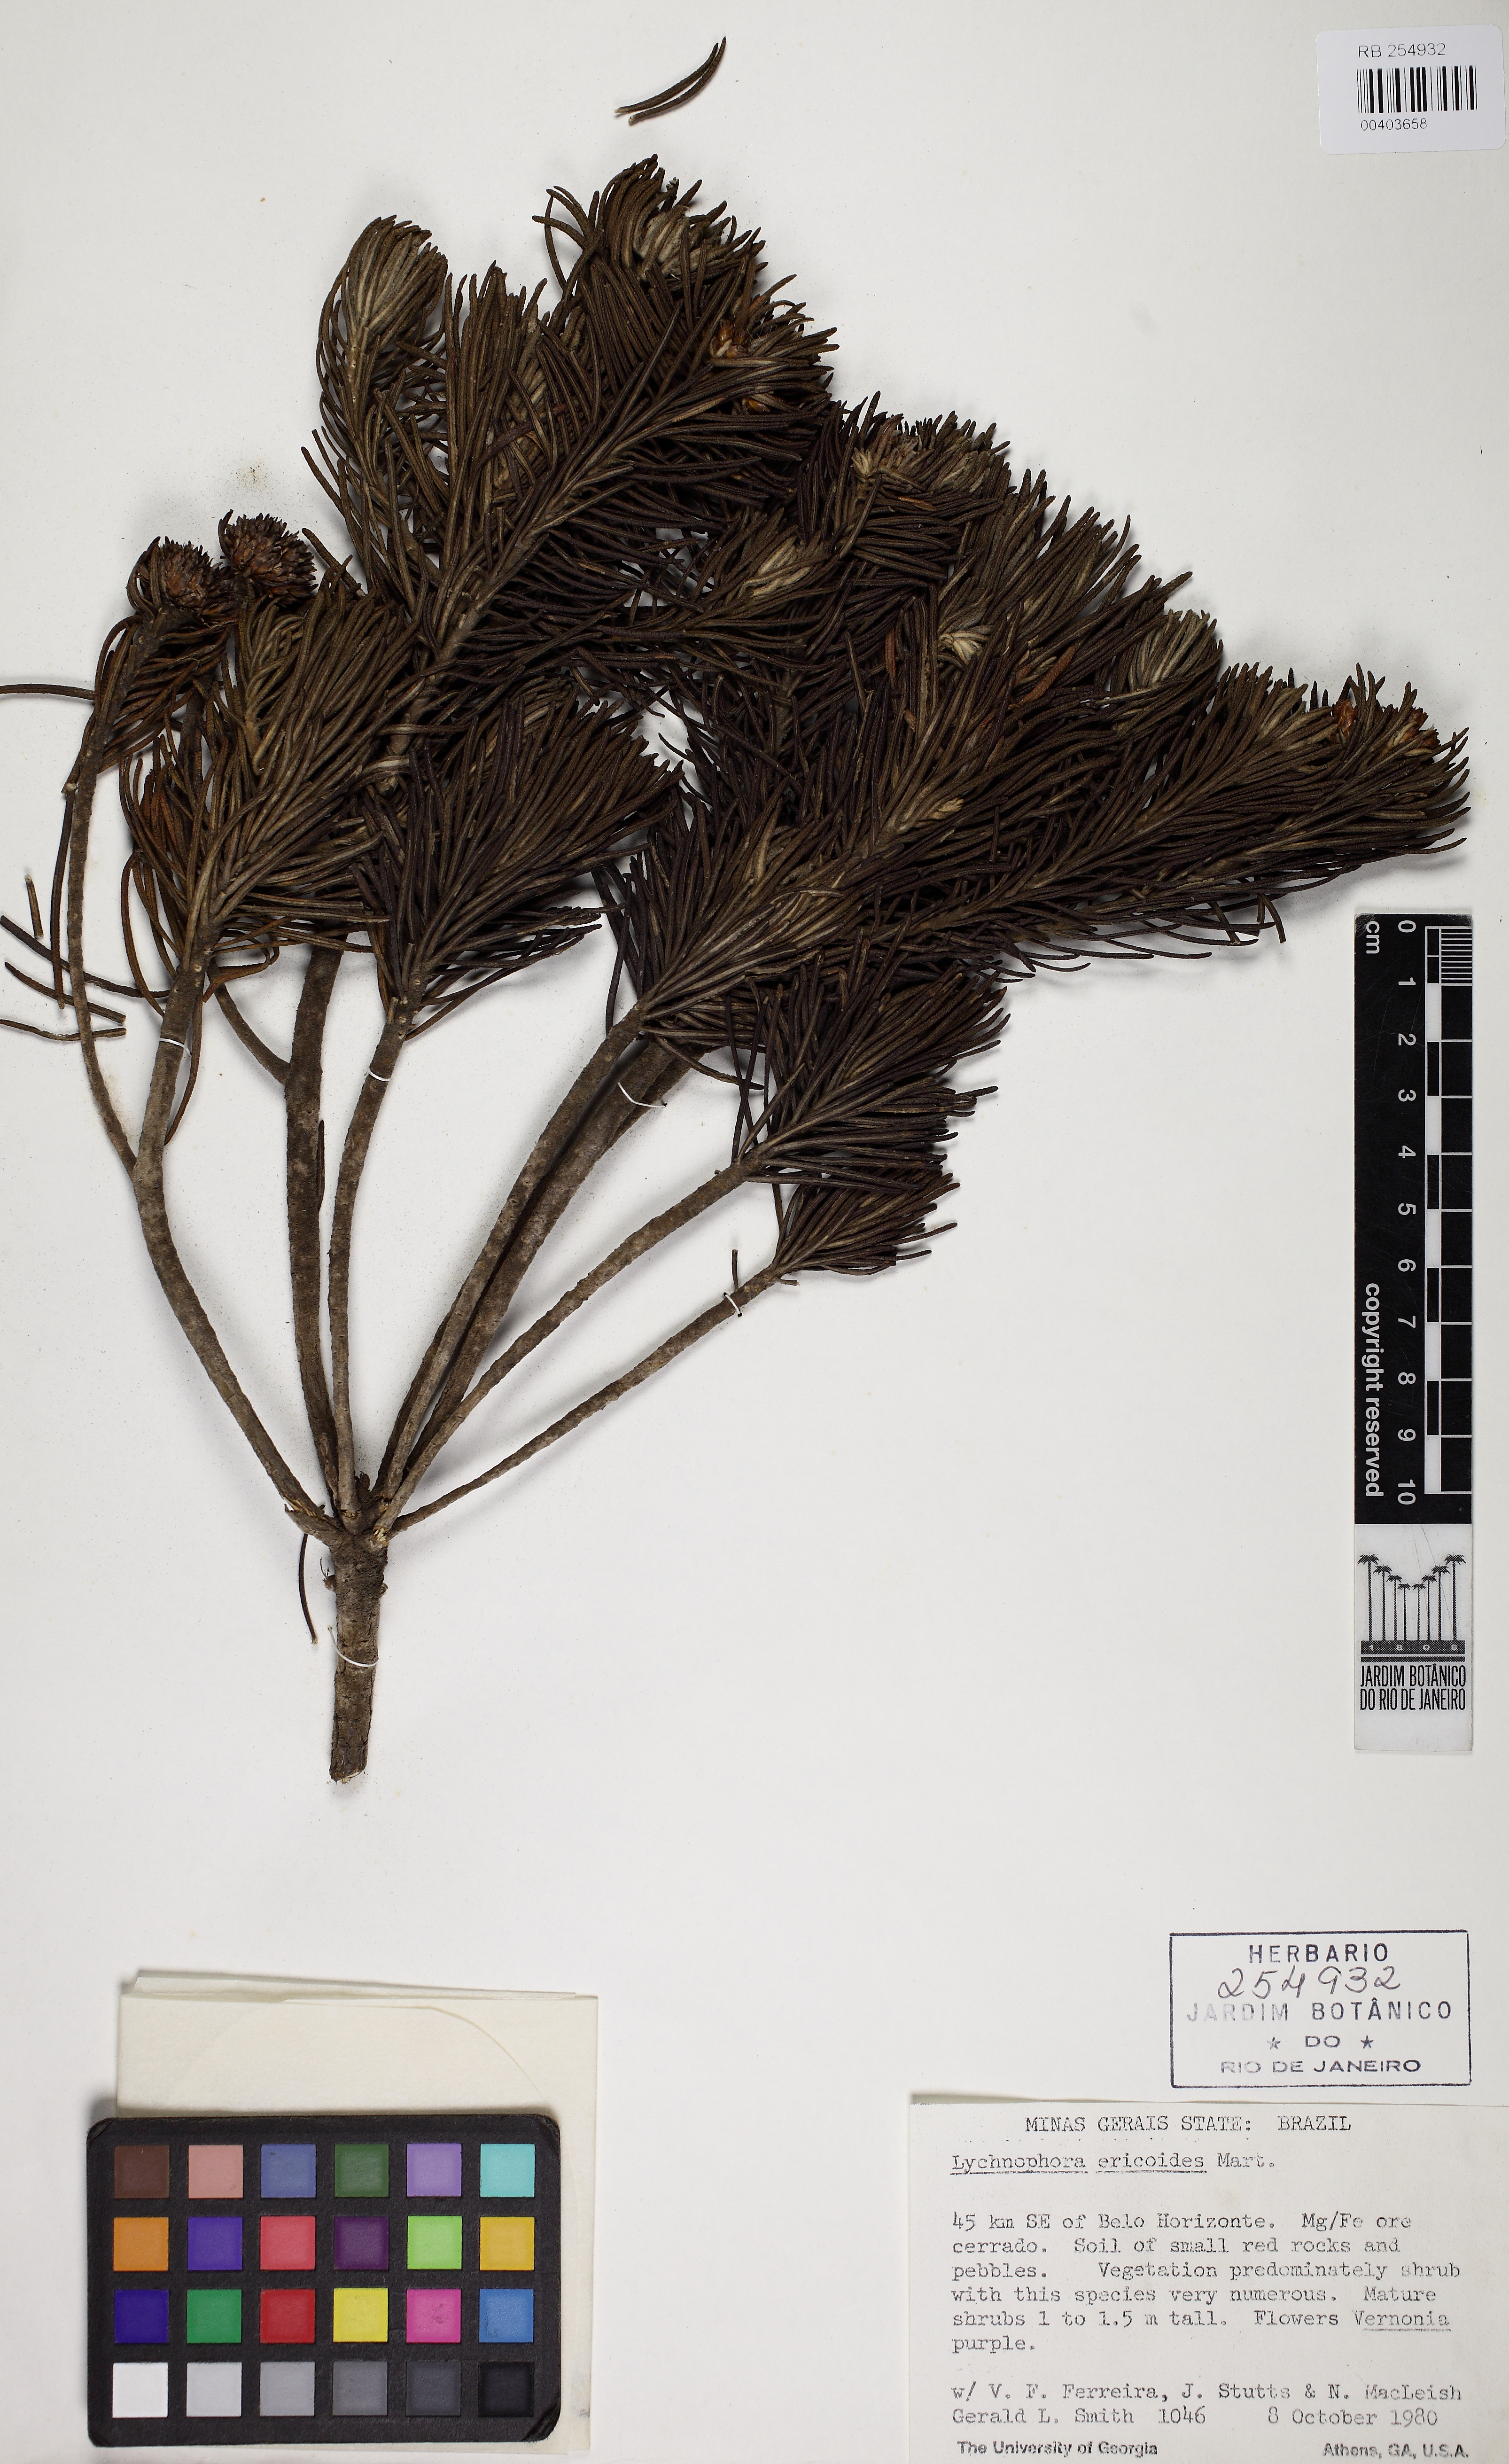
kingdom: Plantae
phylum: Tracheophyta
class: Magnoliopsida
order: Asterales
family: Asteraceae
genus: Lychnophora
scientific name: Lychnophora ericoides
